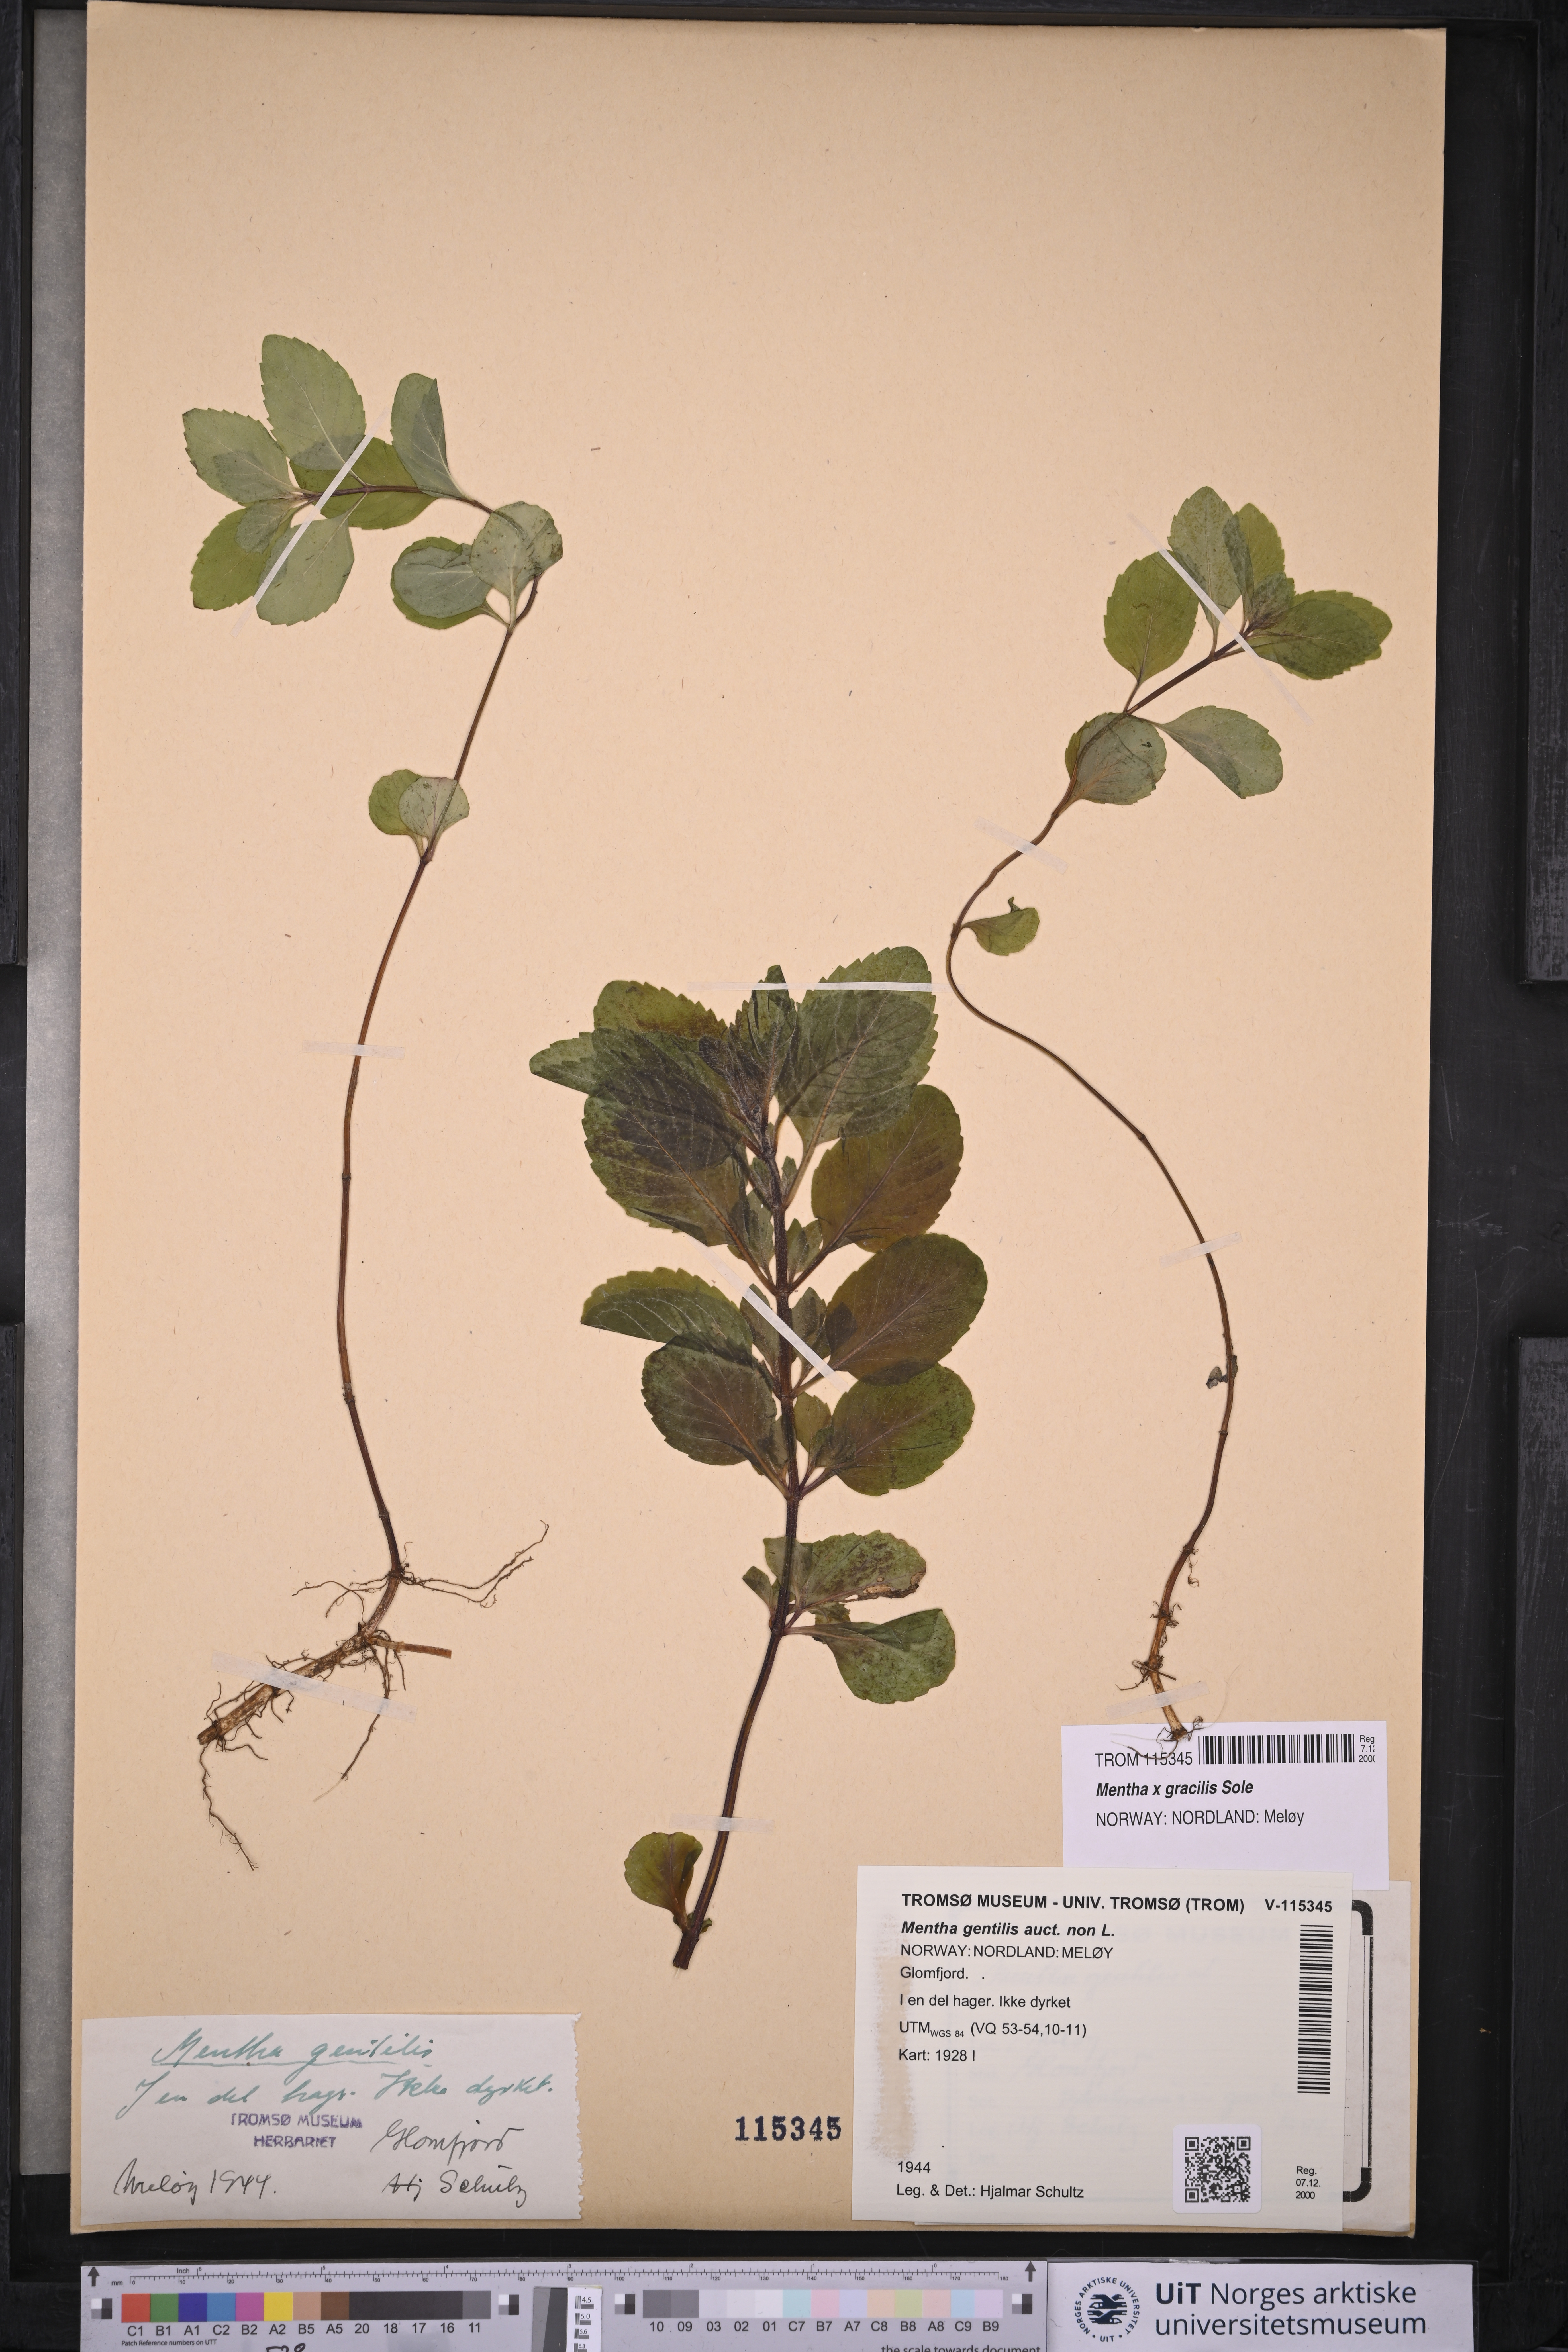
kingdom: Plantae
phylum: Tracheophyta
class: Magnoliopsida
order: Lamiales
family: Lamiaceae
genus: Mentha
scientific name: Mentha arvensis
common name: Corn mint
